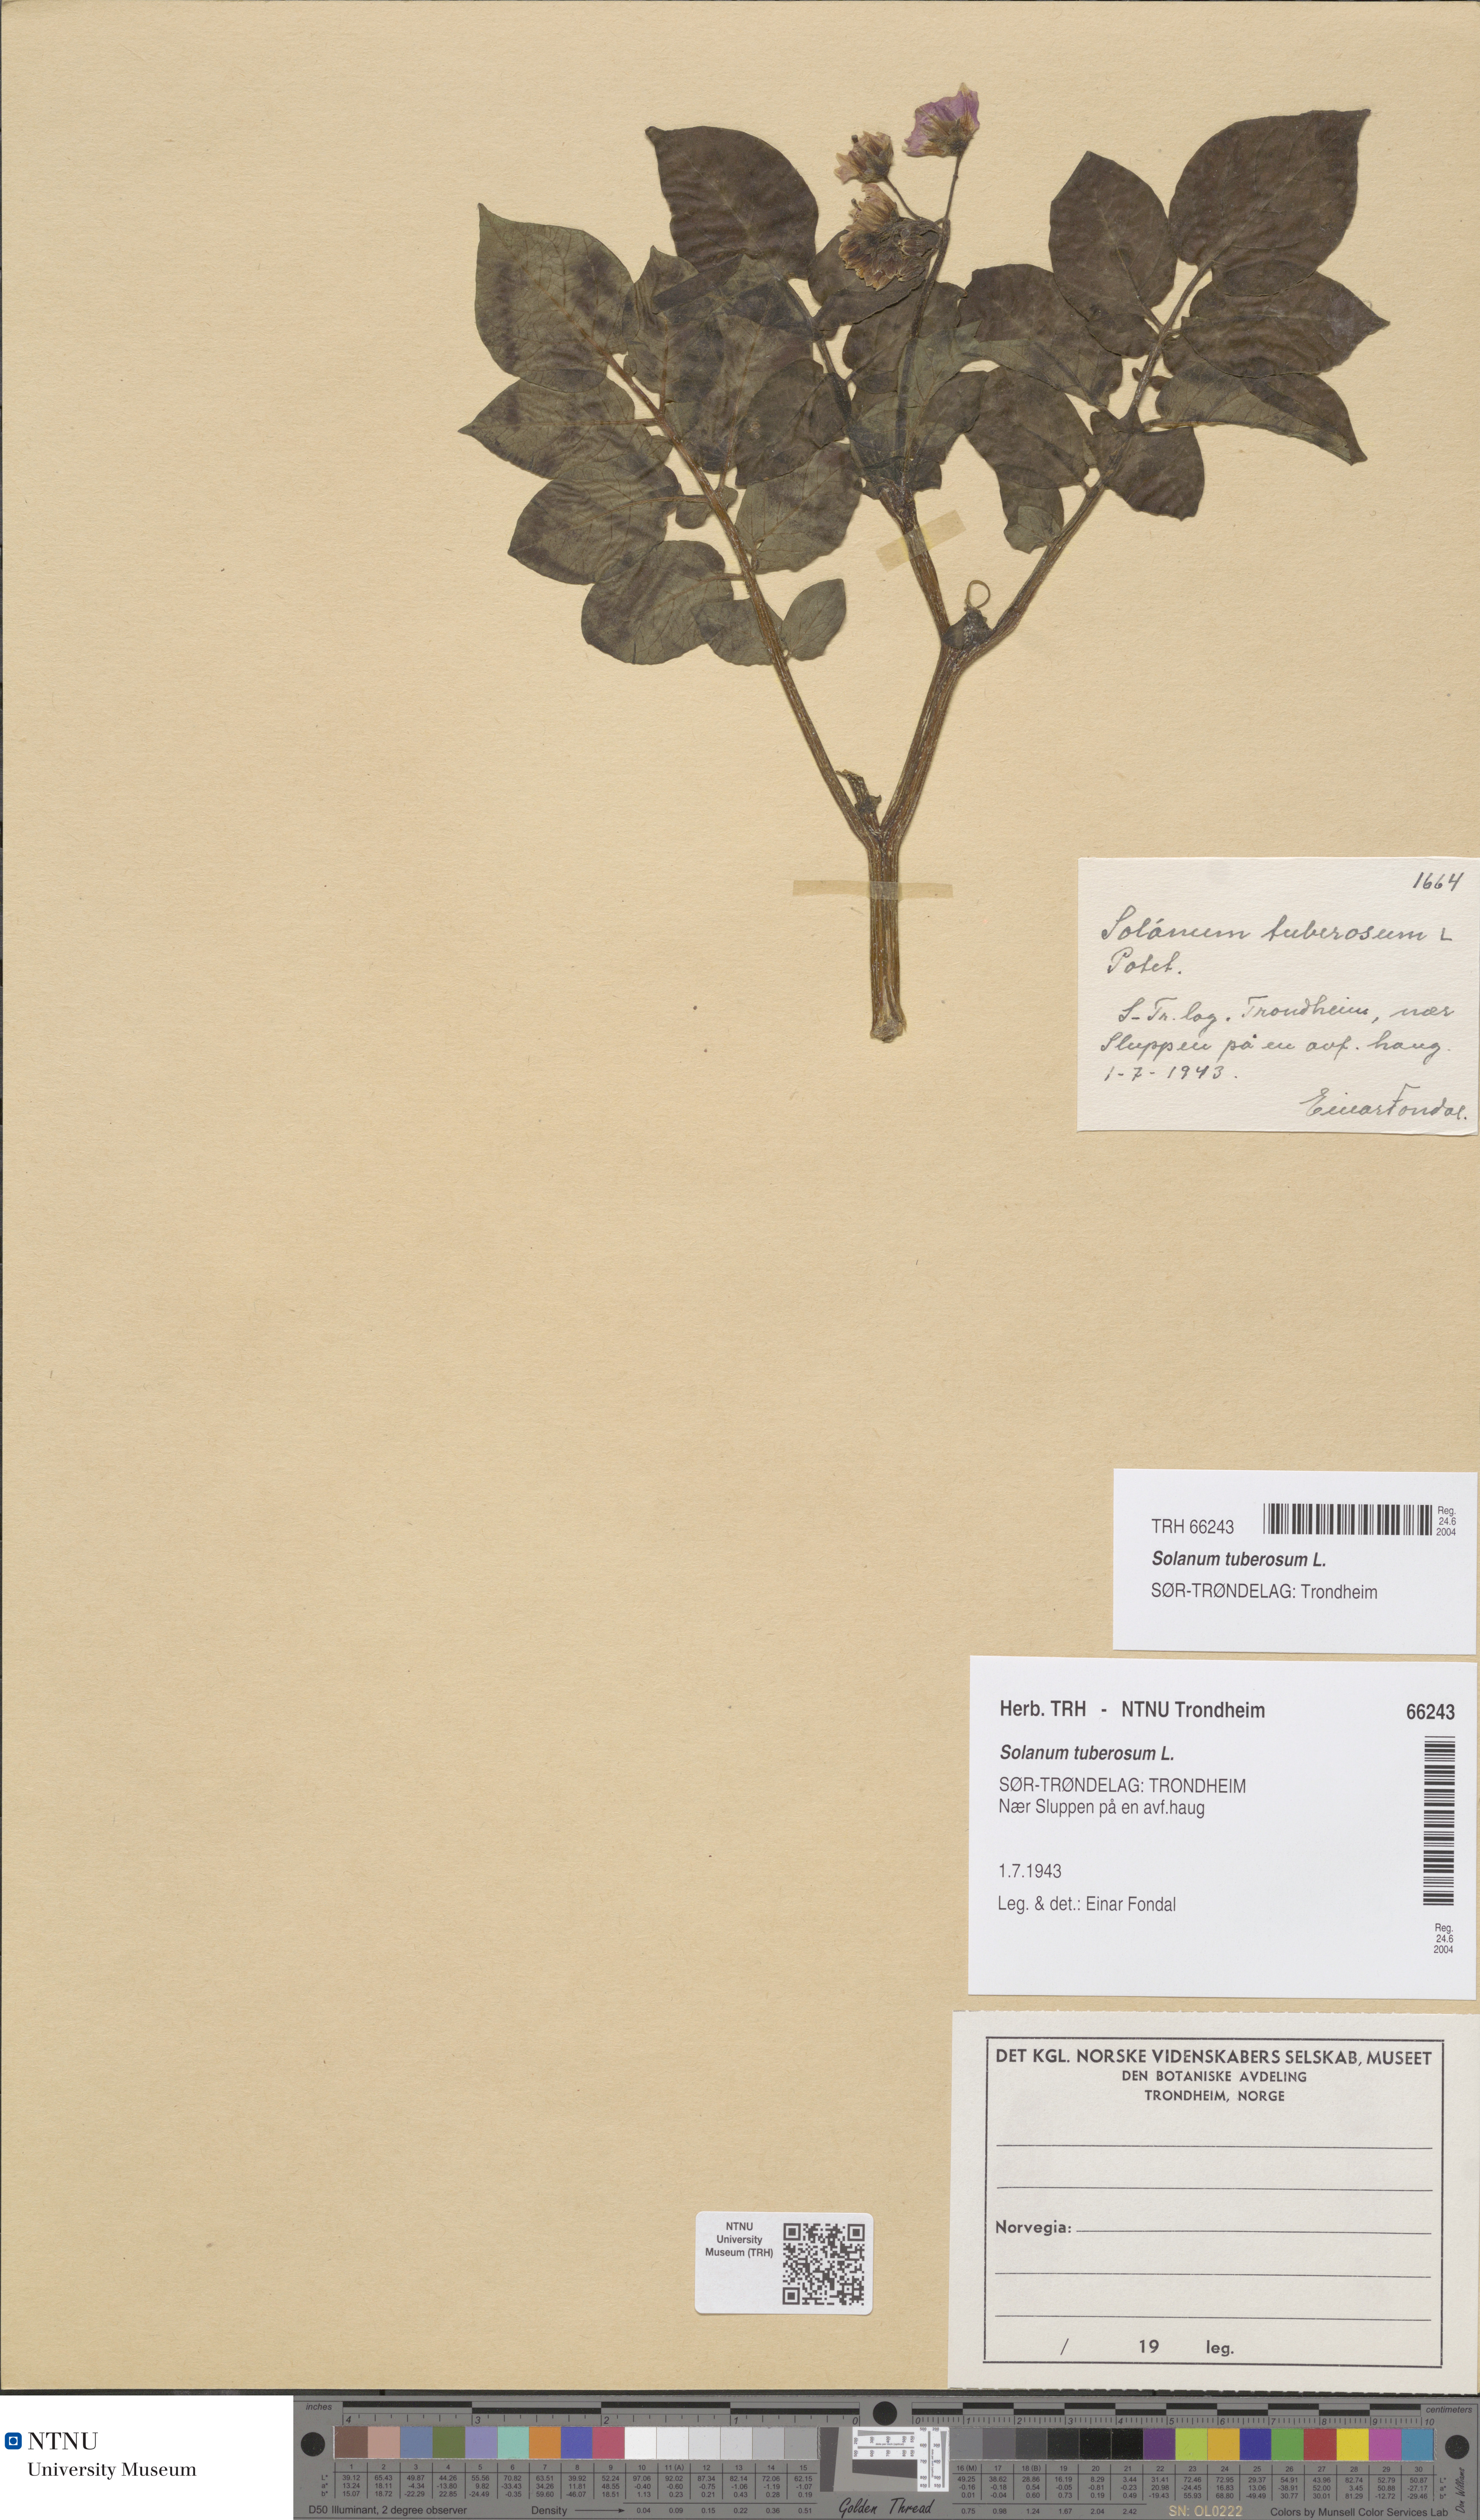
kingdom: Plantae
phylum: Tracheophyta
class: Magnoliopsida
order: Solanales
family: Solanaceae
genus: Solanum
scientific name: Solanum tuberosum
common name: Potato
